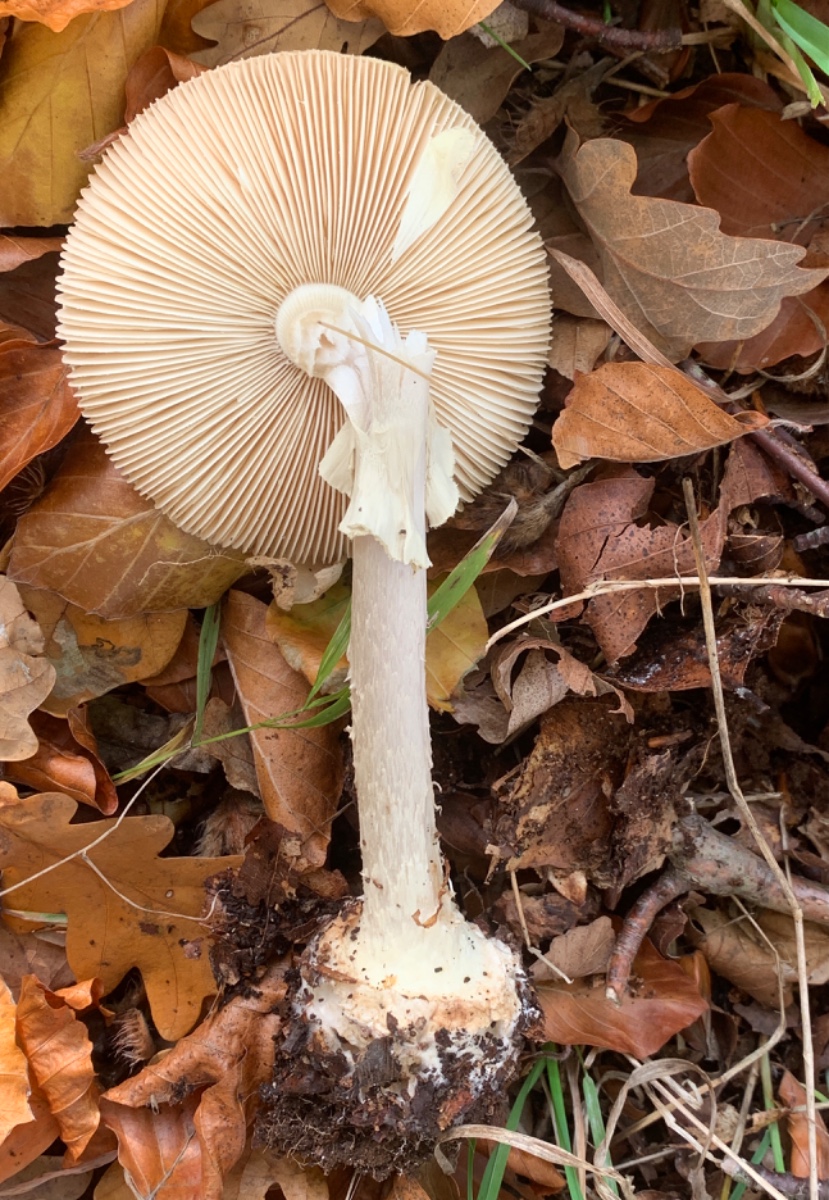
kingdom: Fungi
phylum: Basidiomycota
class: Agaricomycetes
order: Agaricales
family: Amanitaceae
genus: Amanita
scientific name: Amanita citrina
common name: kugleknoldet fluesvamp
